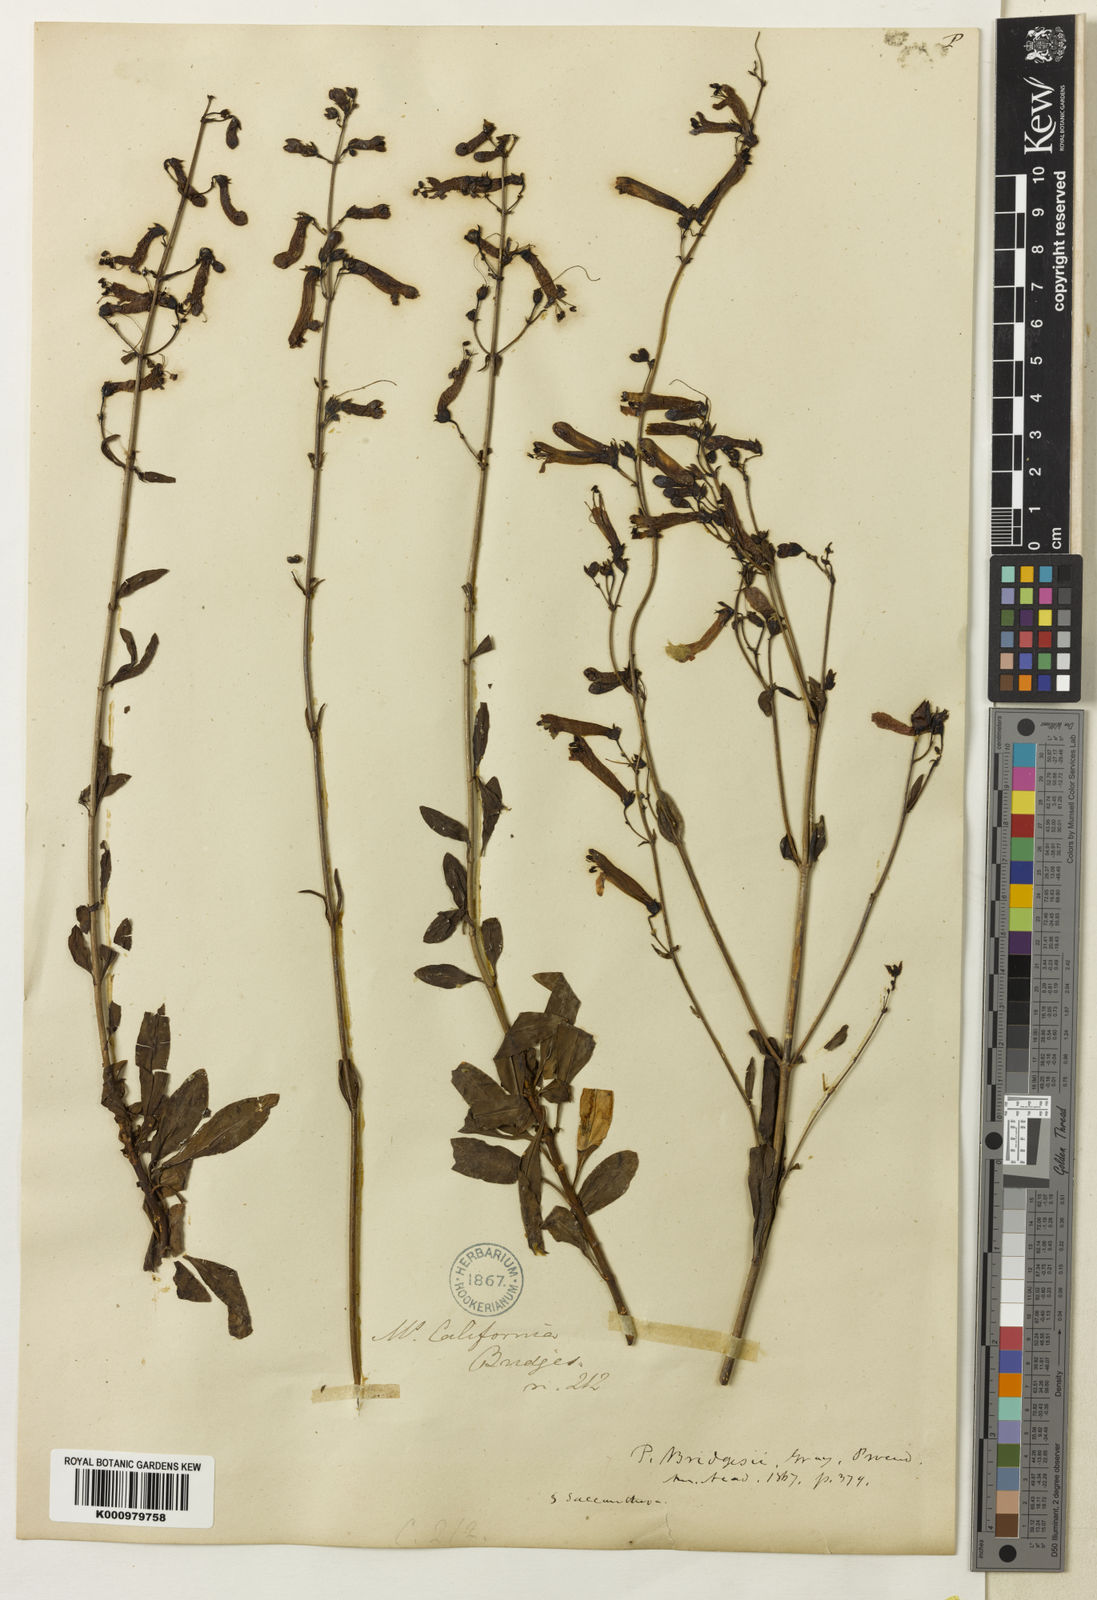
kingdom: Plantae
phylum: Tracheophyta
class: Magnoliopsida
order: Lamiales
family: Plantaginaceae
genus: Penstemon
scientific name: Penstemon rostriflorus
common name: Bridges's penstemon
